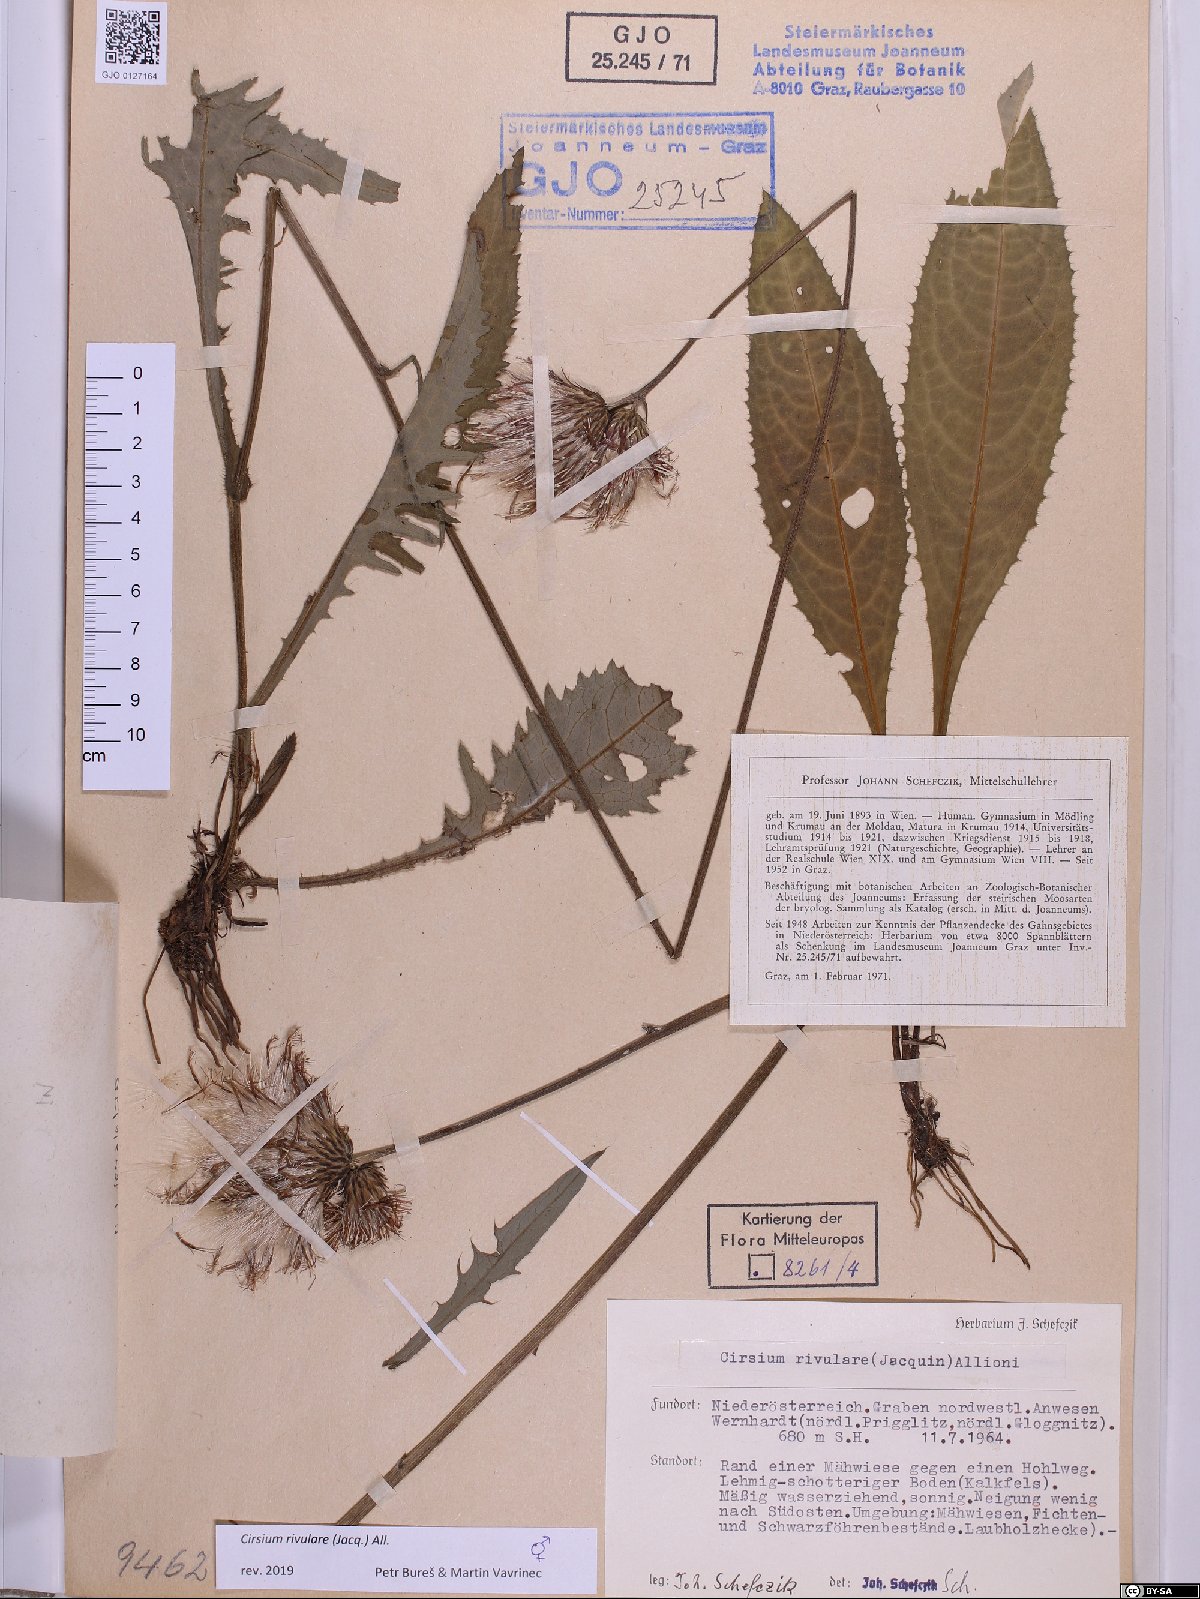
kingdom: Plantae
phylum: Tracheophyta
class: Magnoliopsida
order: Asterales
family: Asteraceae
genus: Cirsium
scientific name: Cirsium rivulare
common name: Brook thistle
